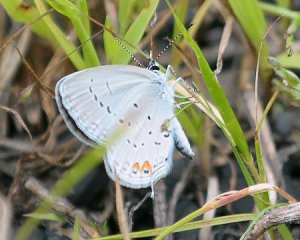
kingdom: Animalia
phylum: Arthropoda
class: Insecta
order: Lepidoptera
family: Lycaenidae
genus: Elkalyce
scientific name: Elkalyce comyntas
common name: Eastern Tailed-Blue
